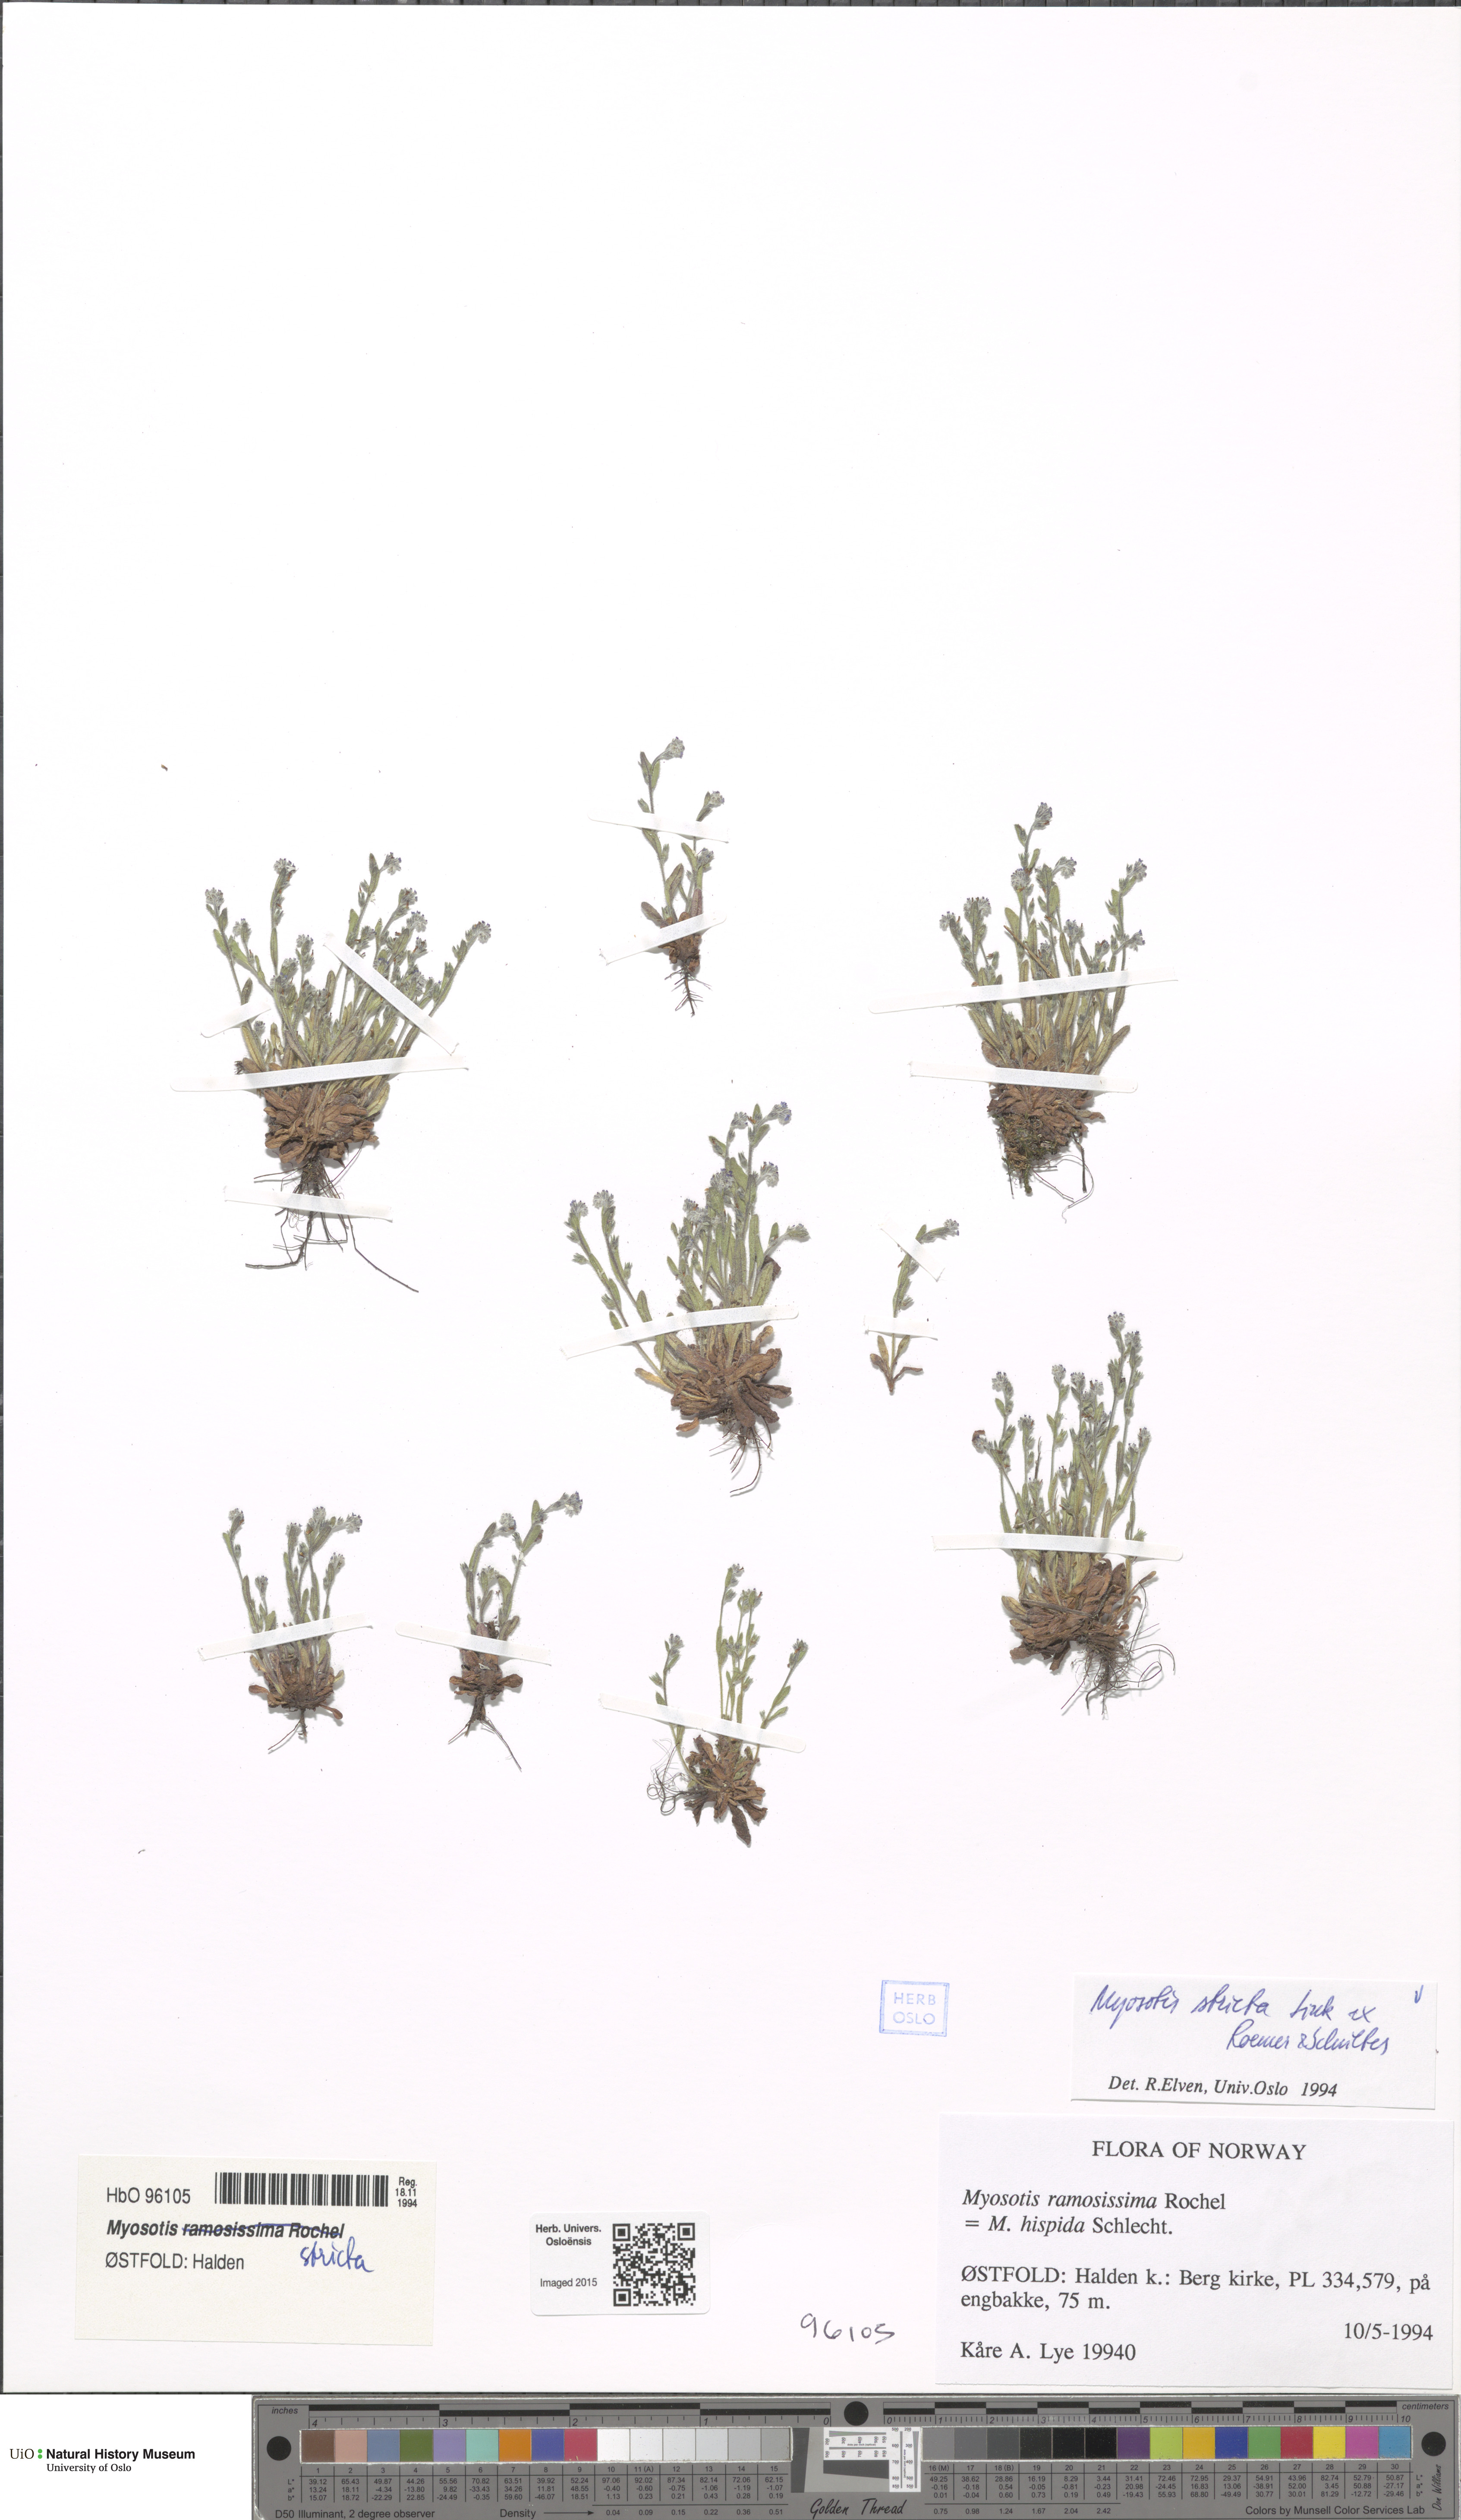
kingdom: Plantae
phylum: Tracheophyta
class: Magnoliopsida
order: Boraginales
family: Boraginaceae
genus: Myosotis
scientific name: Myosotis stricta
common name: Strict forget-me-not
